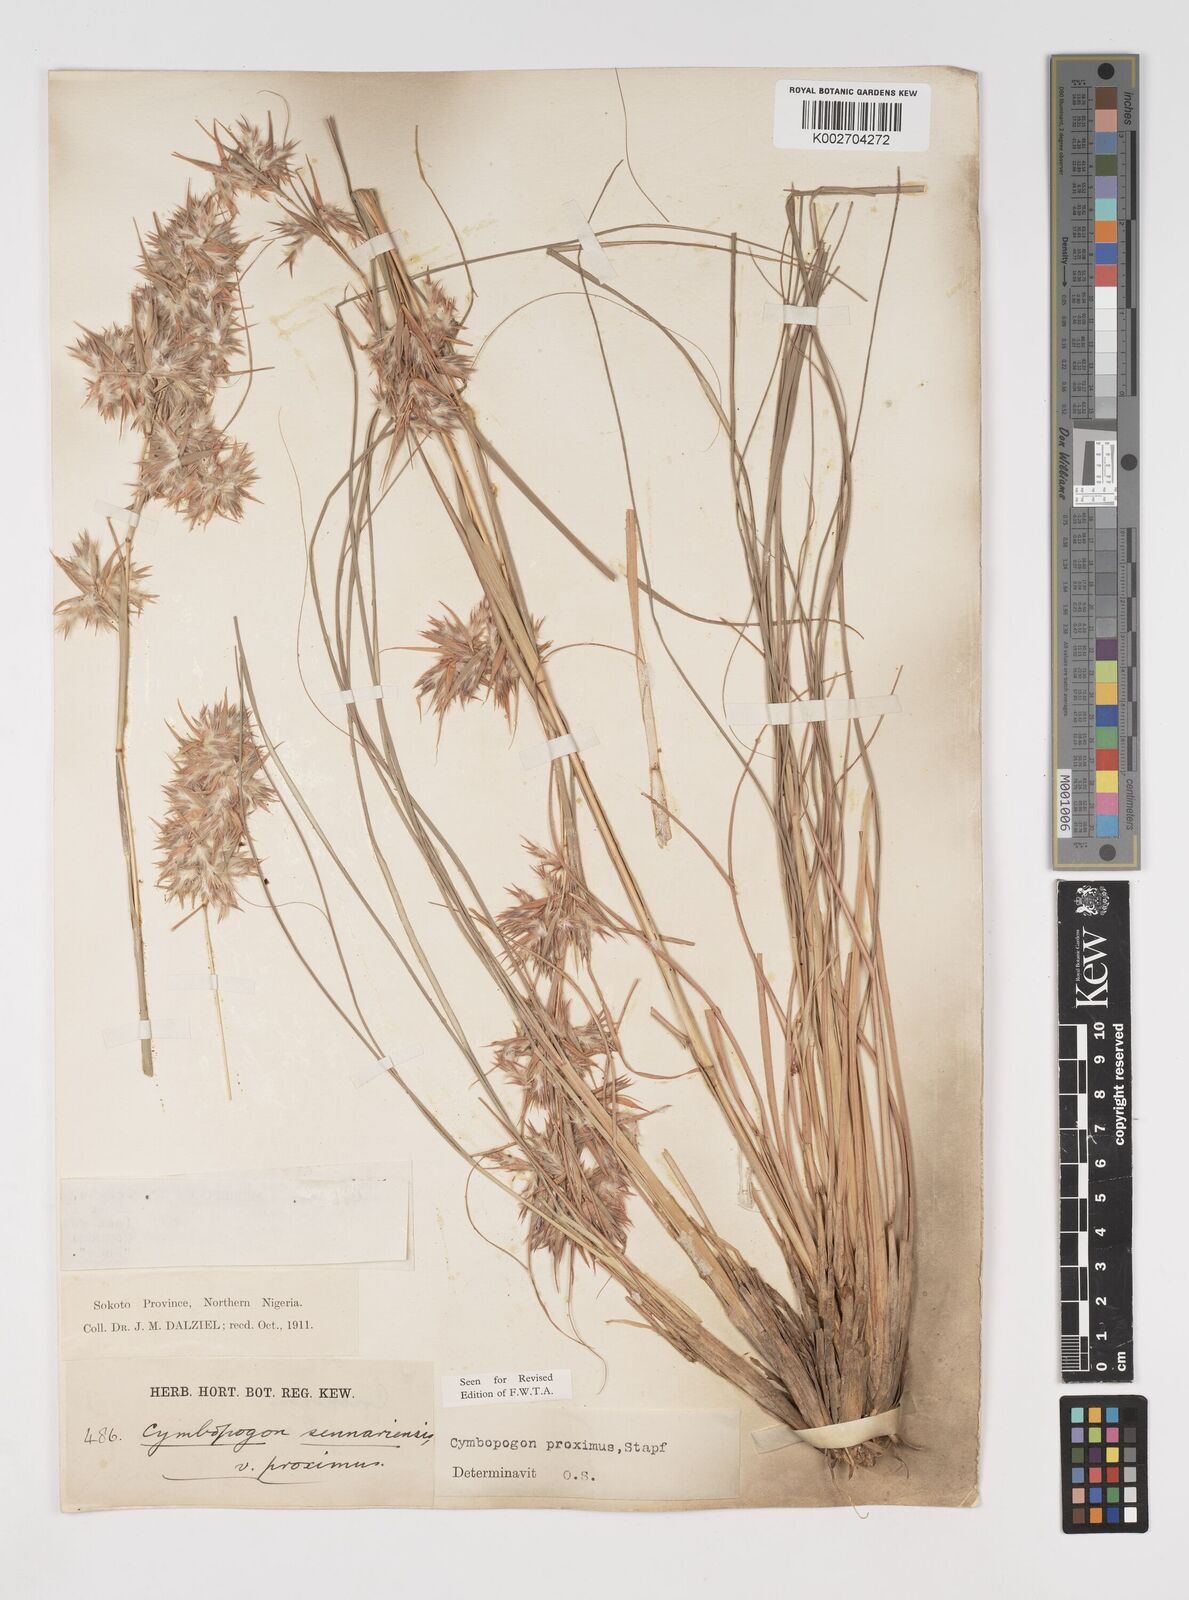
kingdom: Plantae
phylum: Tracheophyta
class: Liliopsida
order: Poales
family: Poaceae
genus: Cymbopogon
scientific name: Cymbopogon schoenanthus
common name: Geranium grass
